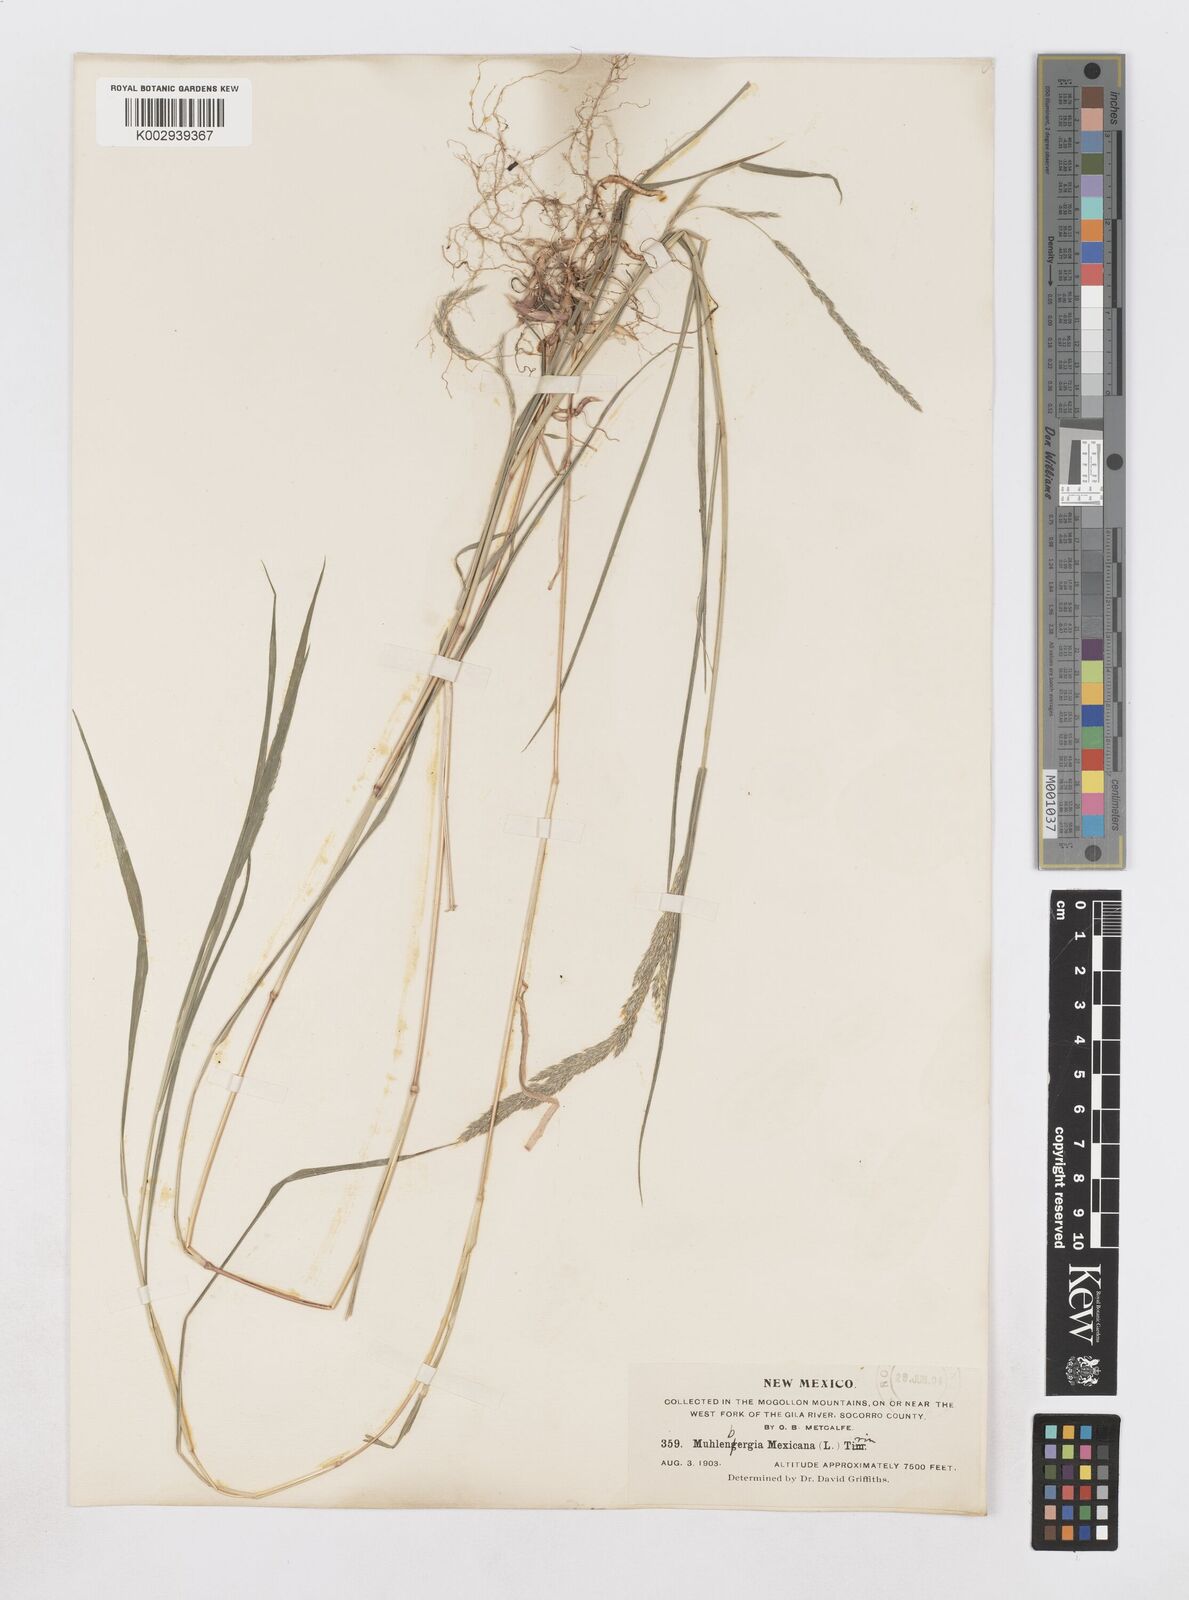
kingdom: Plantae
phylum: Tracheophyta
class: Liliopsida
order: Poales
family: Poaceae
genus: Muhlenbergia
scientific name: Muhlenbergia mexicana
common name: Mexican muhly
